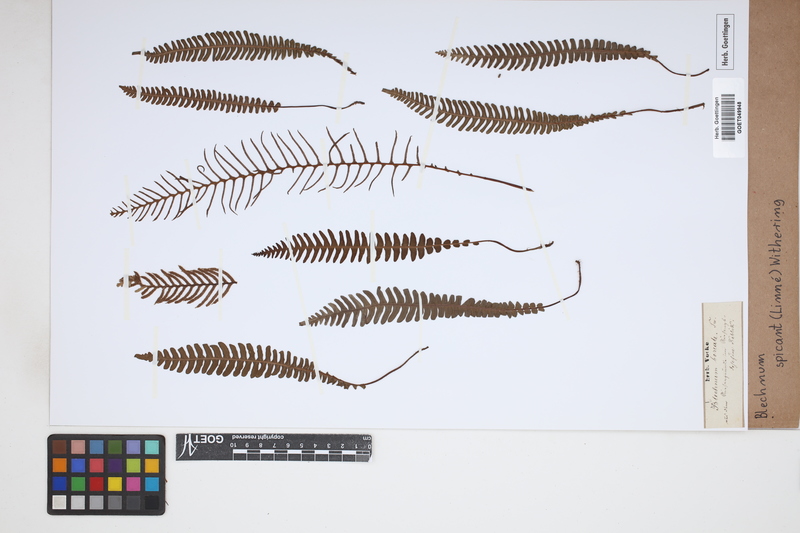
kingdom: Plantae
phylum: Tracheophyta
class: Polypodiopsida
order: Polypodiales
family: Blechnaceae
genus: Struthiopteris
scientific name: Struthiopteris spicant
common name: Deer fern
